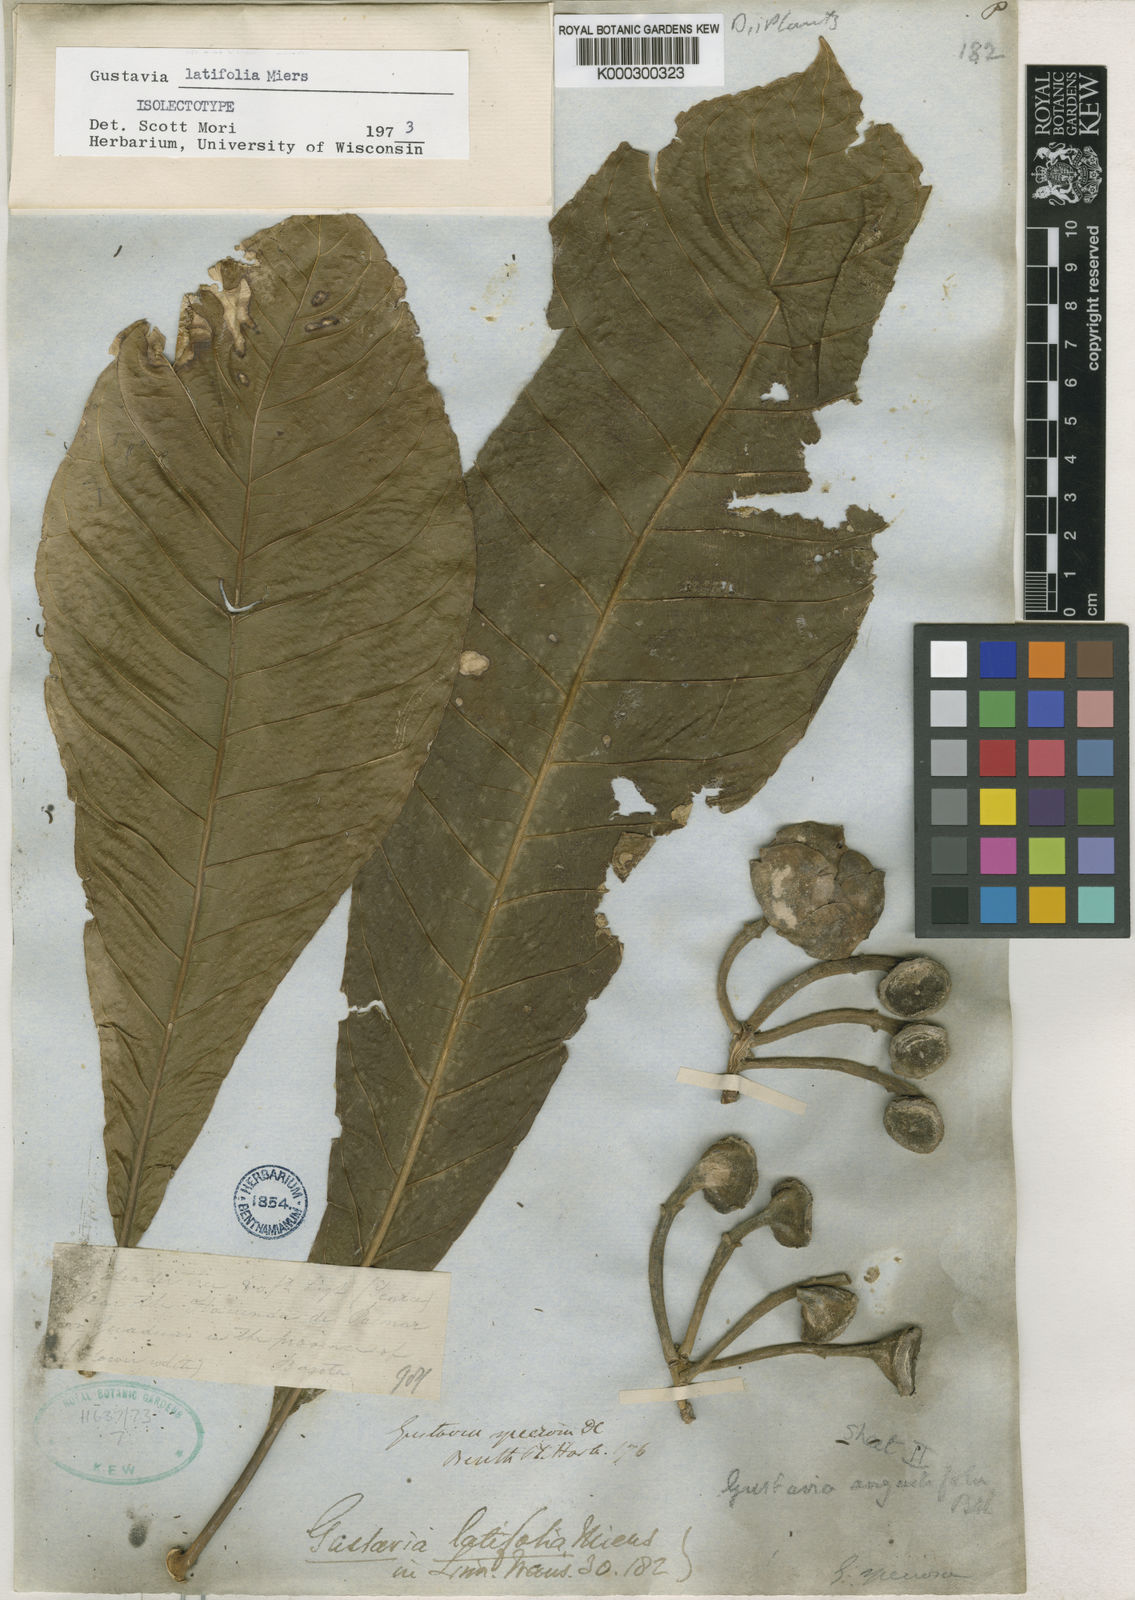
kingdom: Plantae
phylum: Tracheophyta
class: Magnoliopsida
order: Ericales
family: Lecythidaceae
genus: Gustavia
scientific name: Gustavia latifolia
